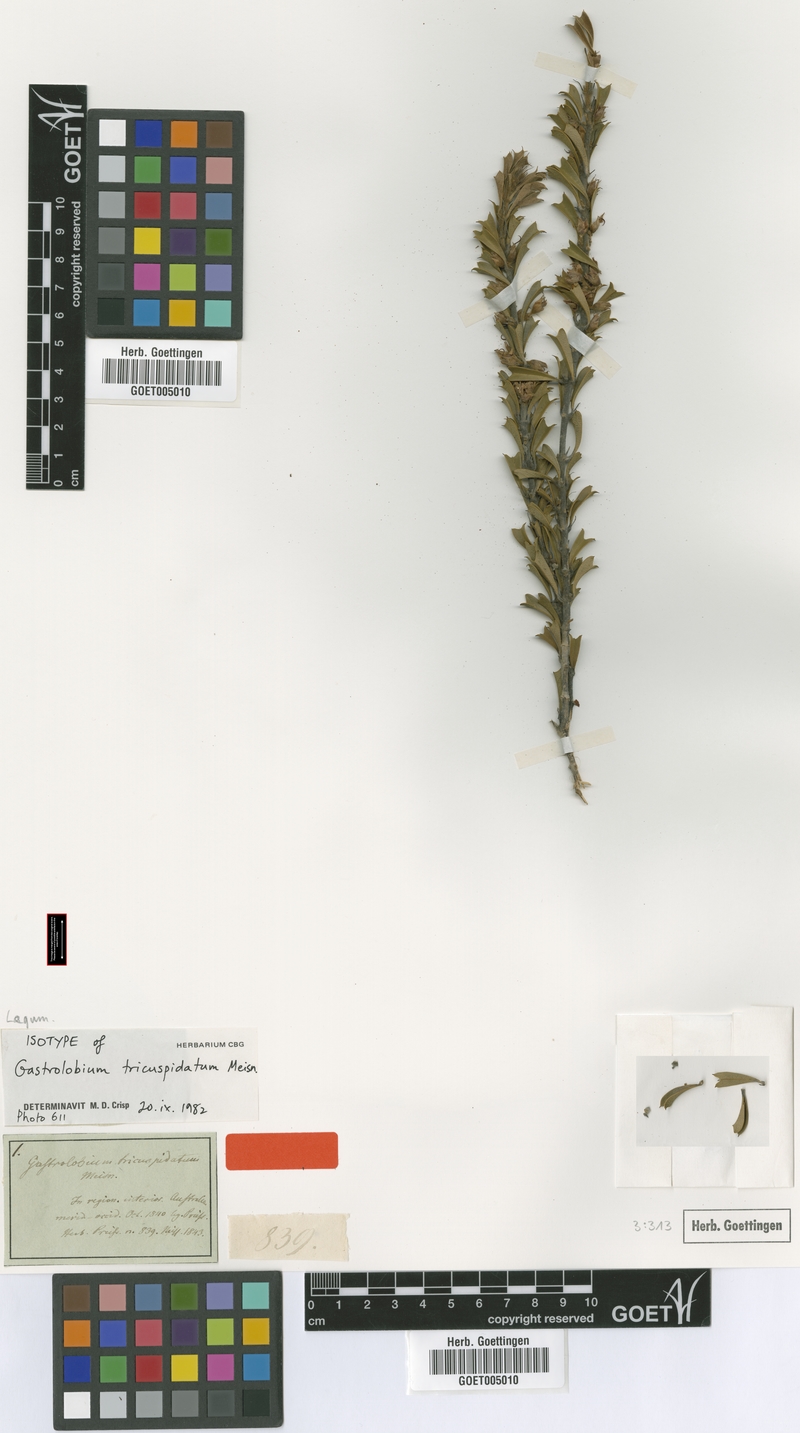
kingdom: Plantae
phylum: Tracheophyta
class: Magnoliopsida
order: Fabales
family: Fabaceae
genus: Gastrolobium
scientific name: Gastrolobium tricuspidatum
